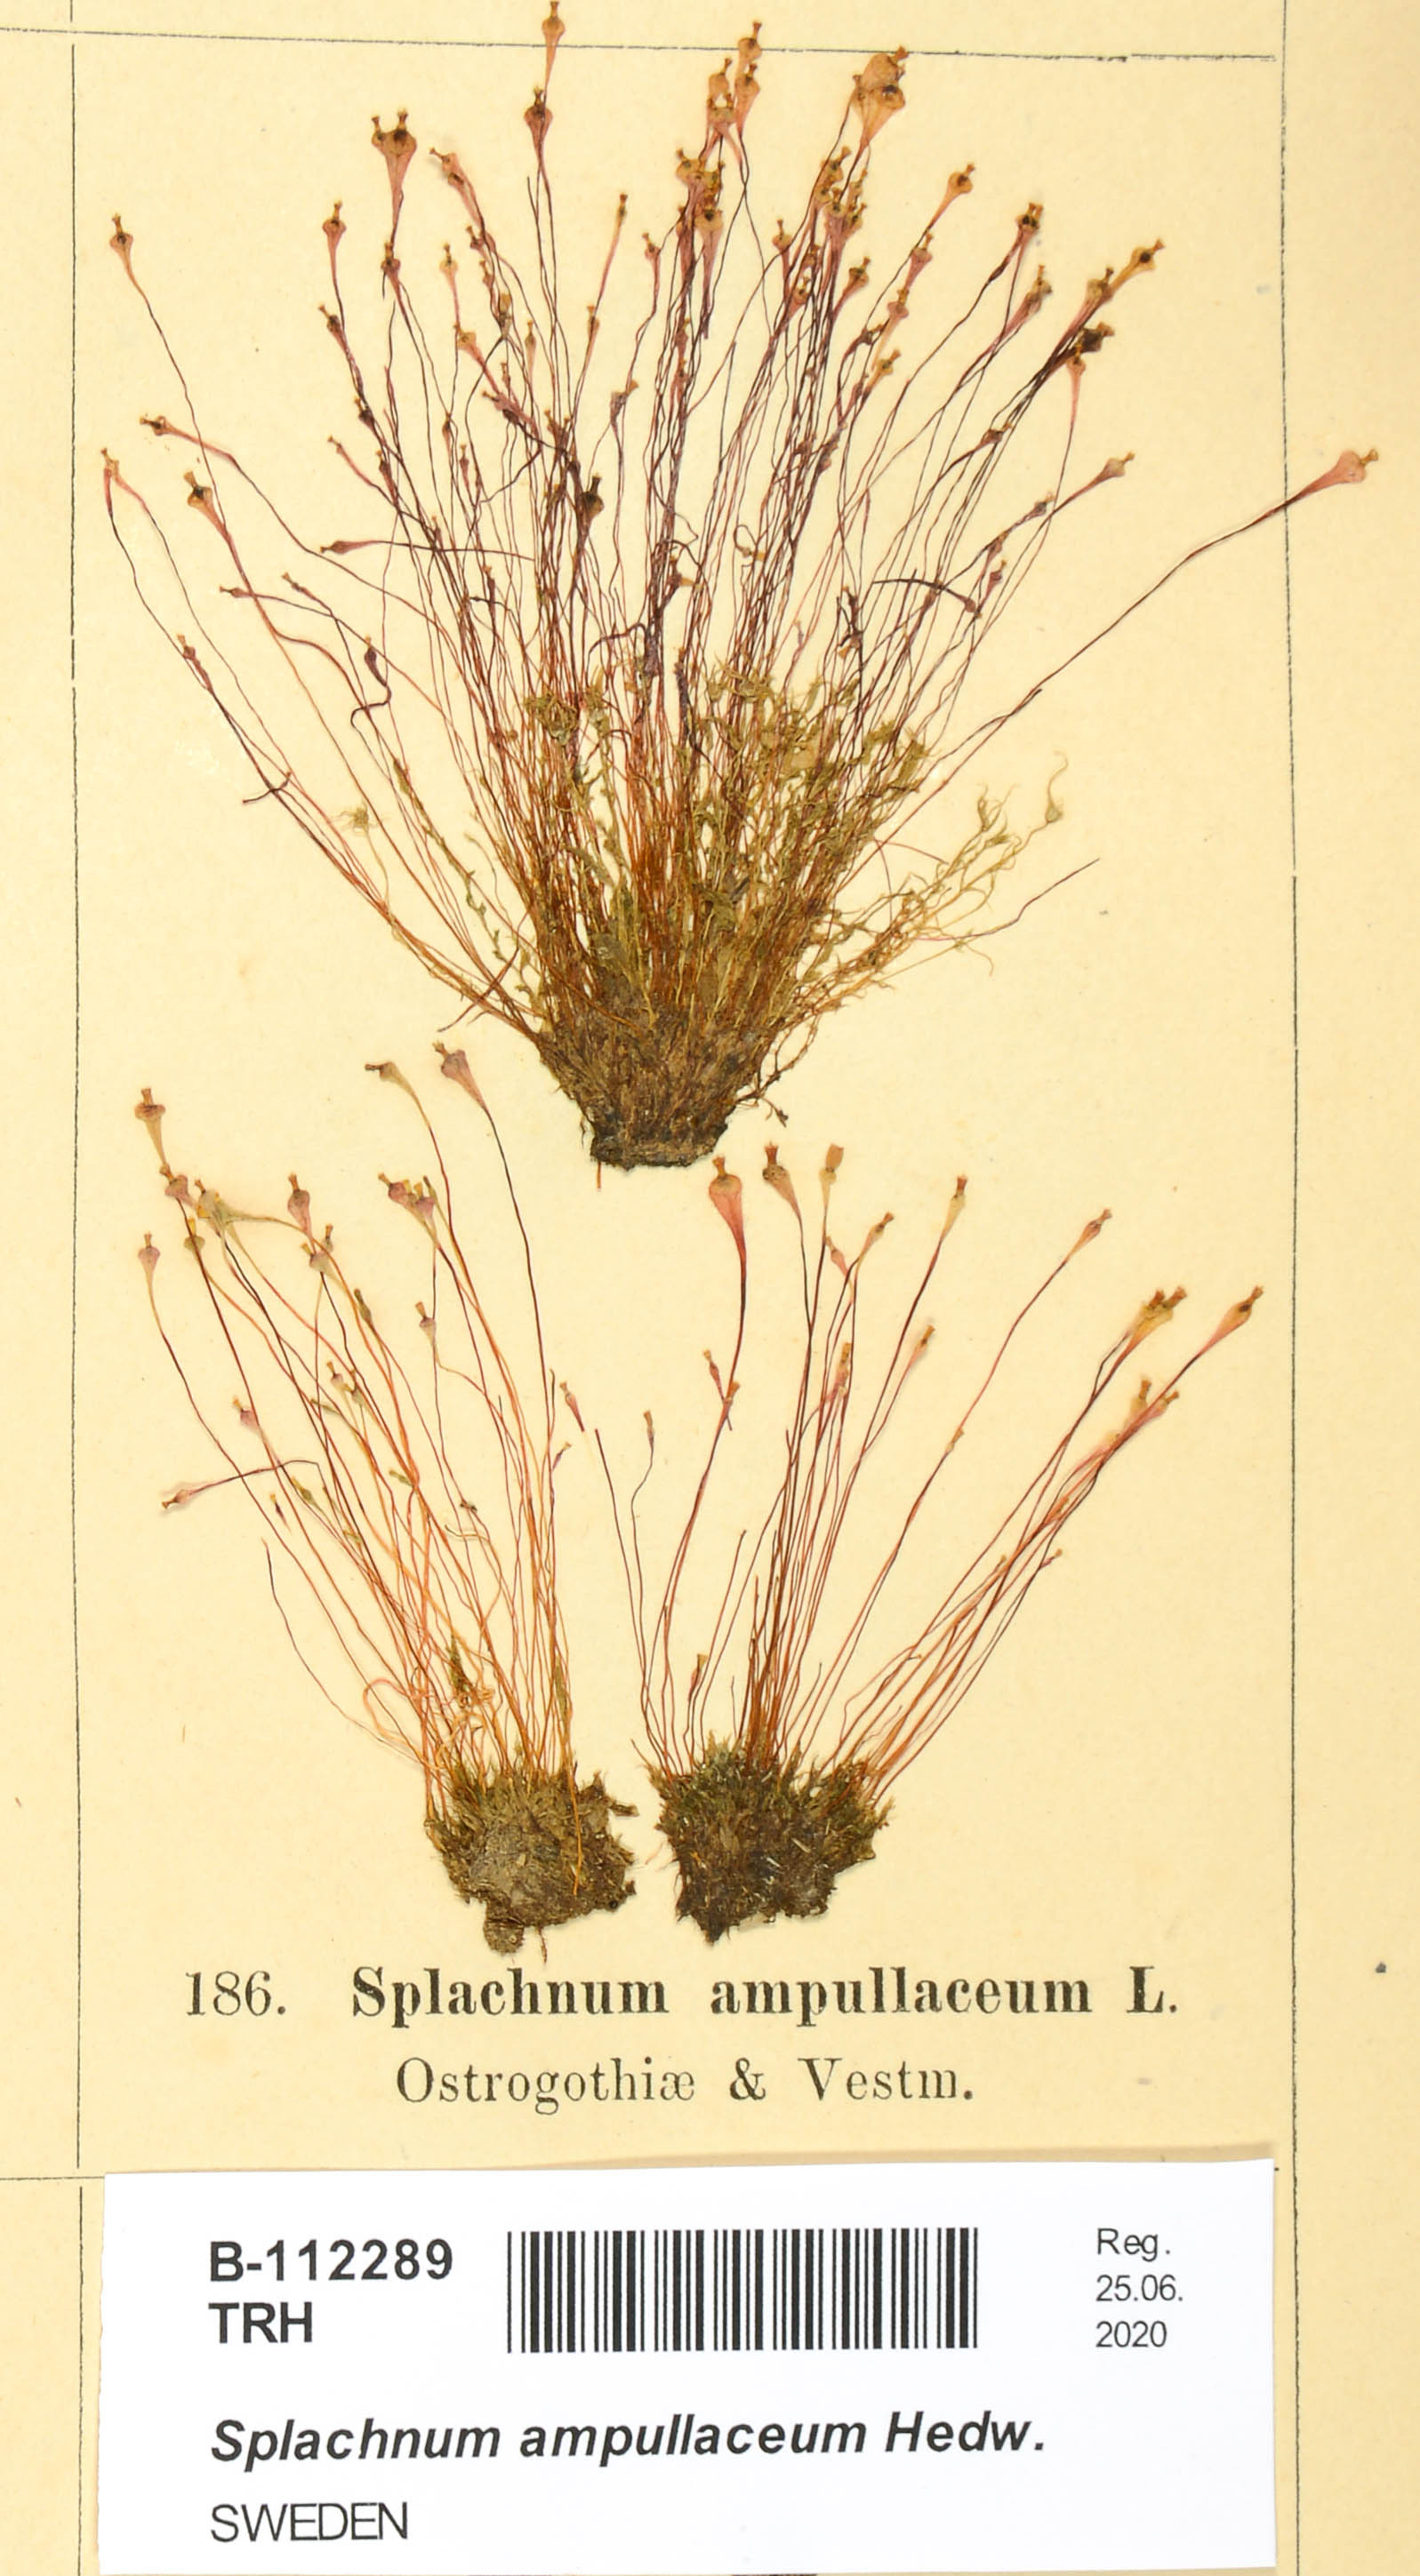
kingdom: Plantae
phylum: Bryophyta
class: Bryopsida
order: Splachnales
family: Splachnaceae
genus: Splachnum
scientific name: Splachnum ampullaceum
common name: Cruet dung moss
